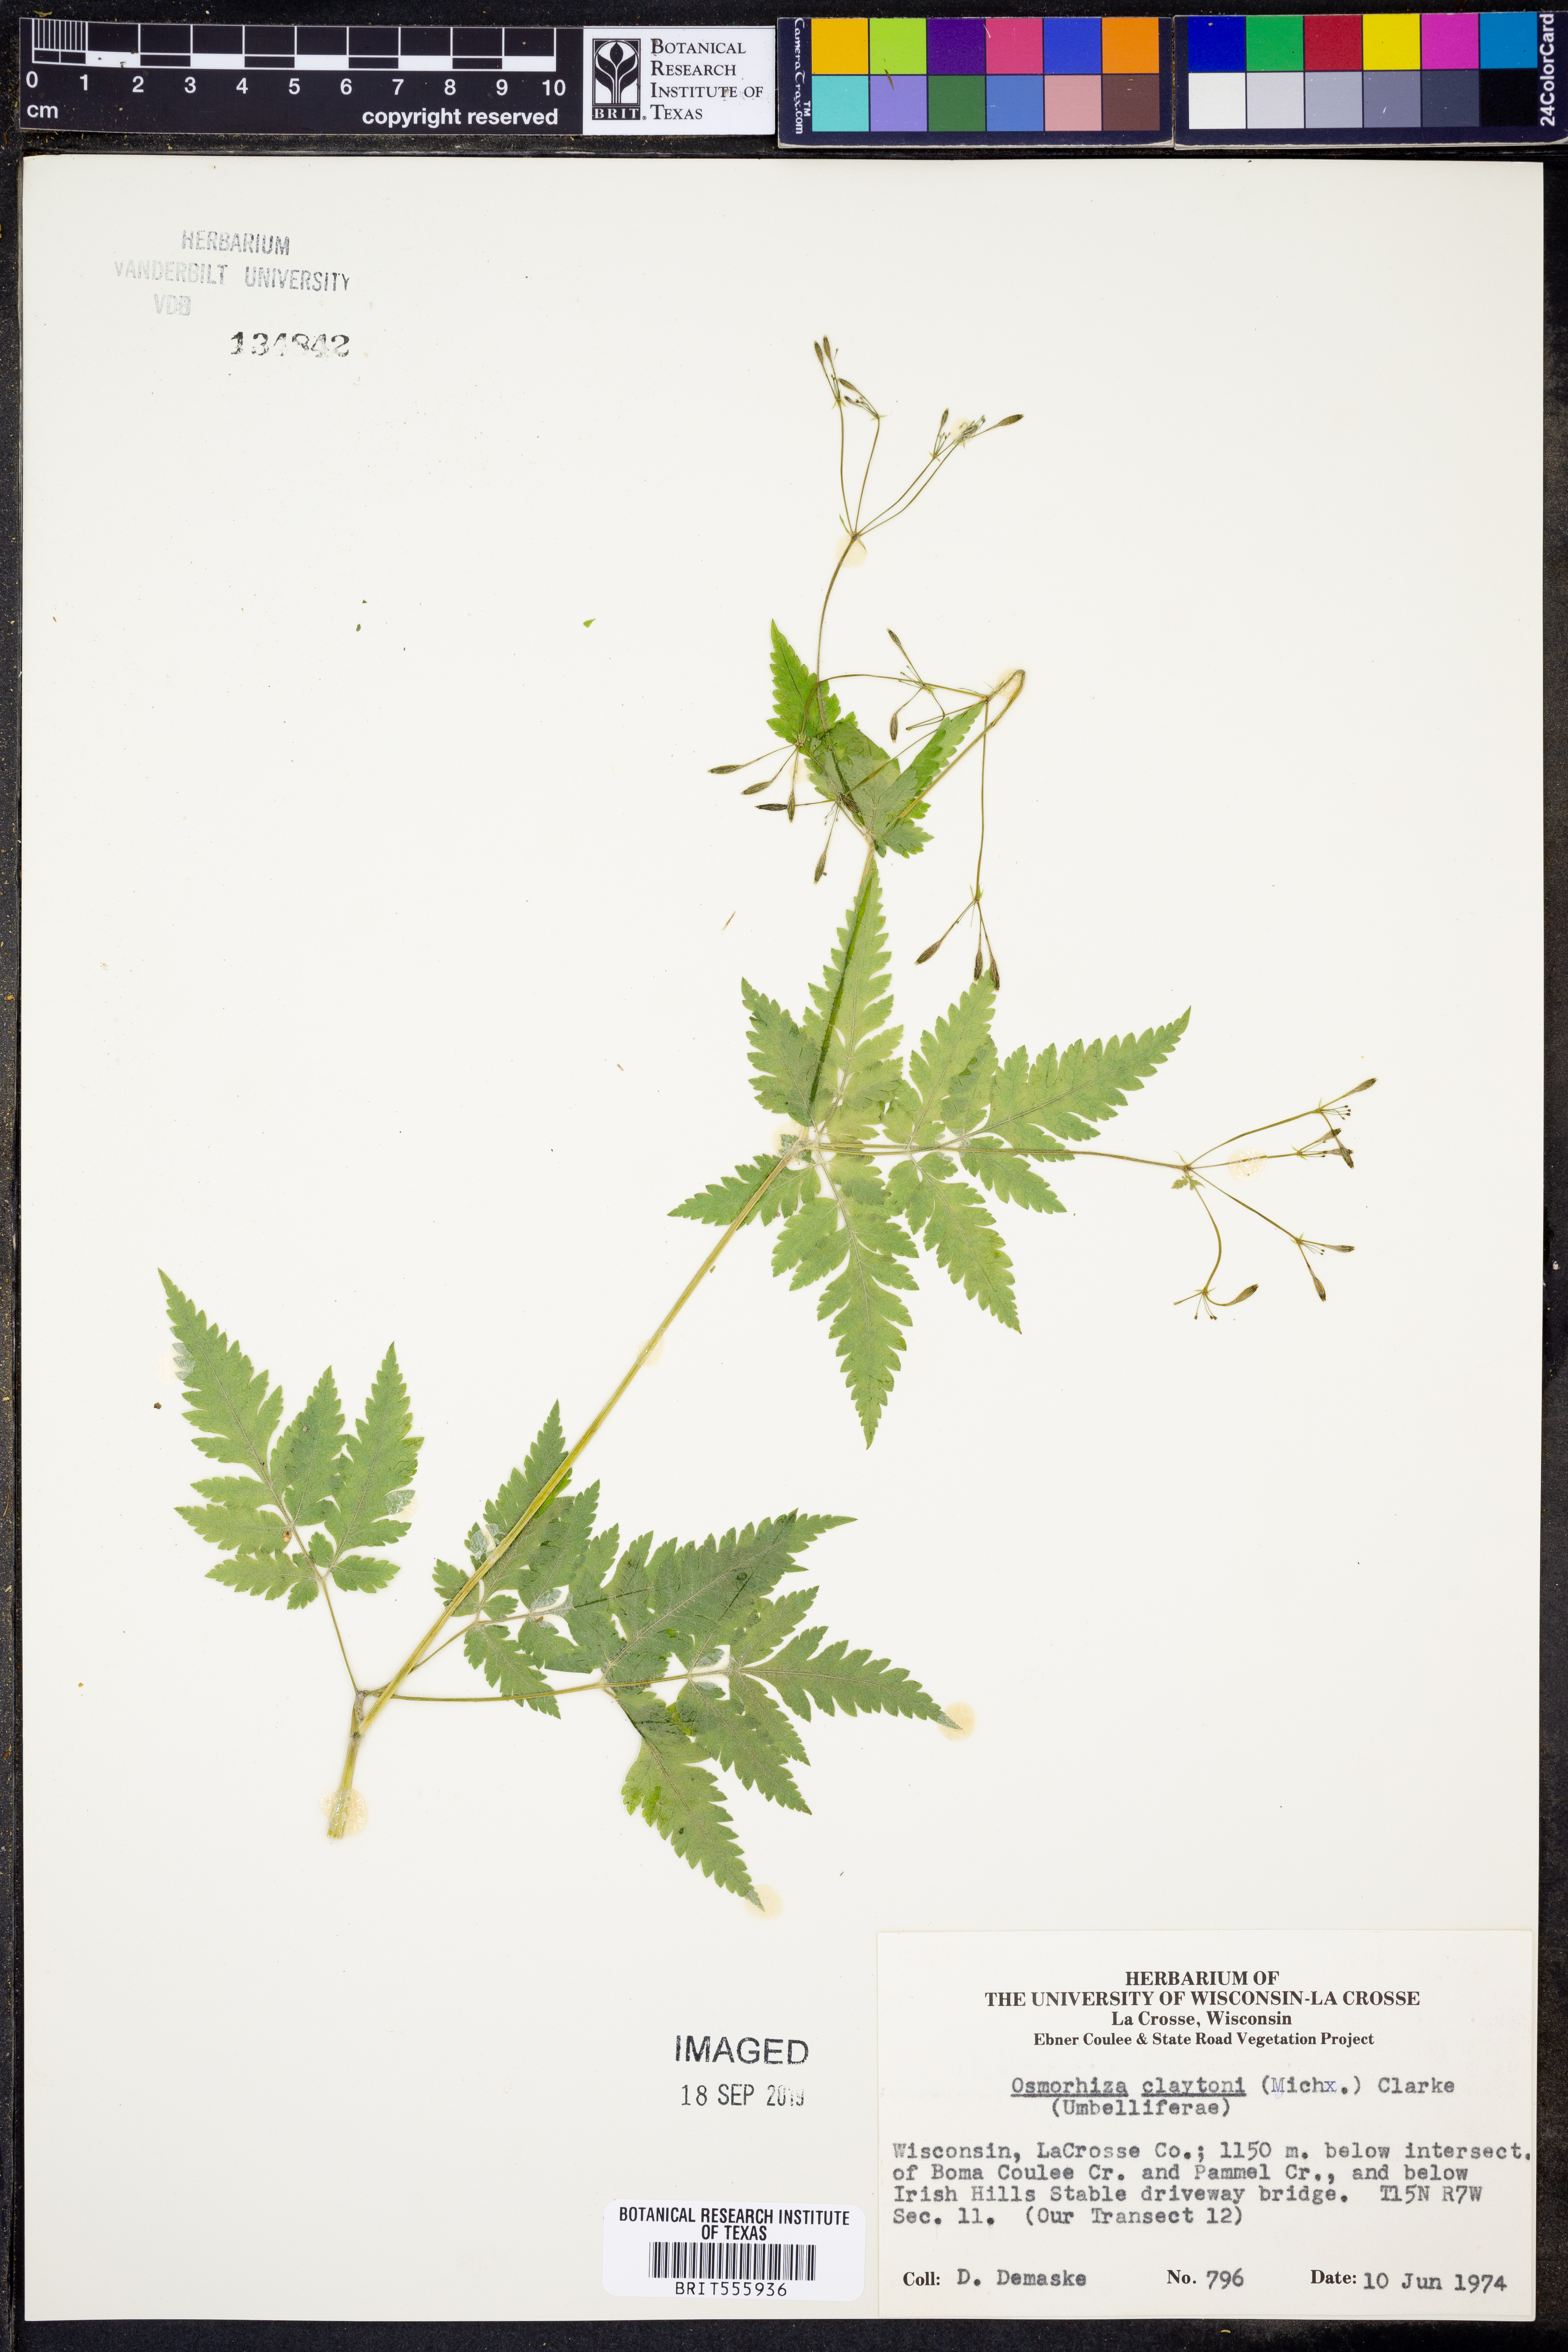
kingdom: Plantae
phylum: Tracheophyta
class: Magnoliopsida
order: Apiales
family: Apiaceae
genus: Osmorhiza
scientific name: Osmorhiza claytonii
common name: Hairy sweet cicely
